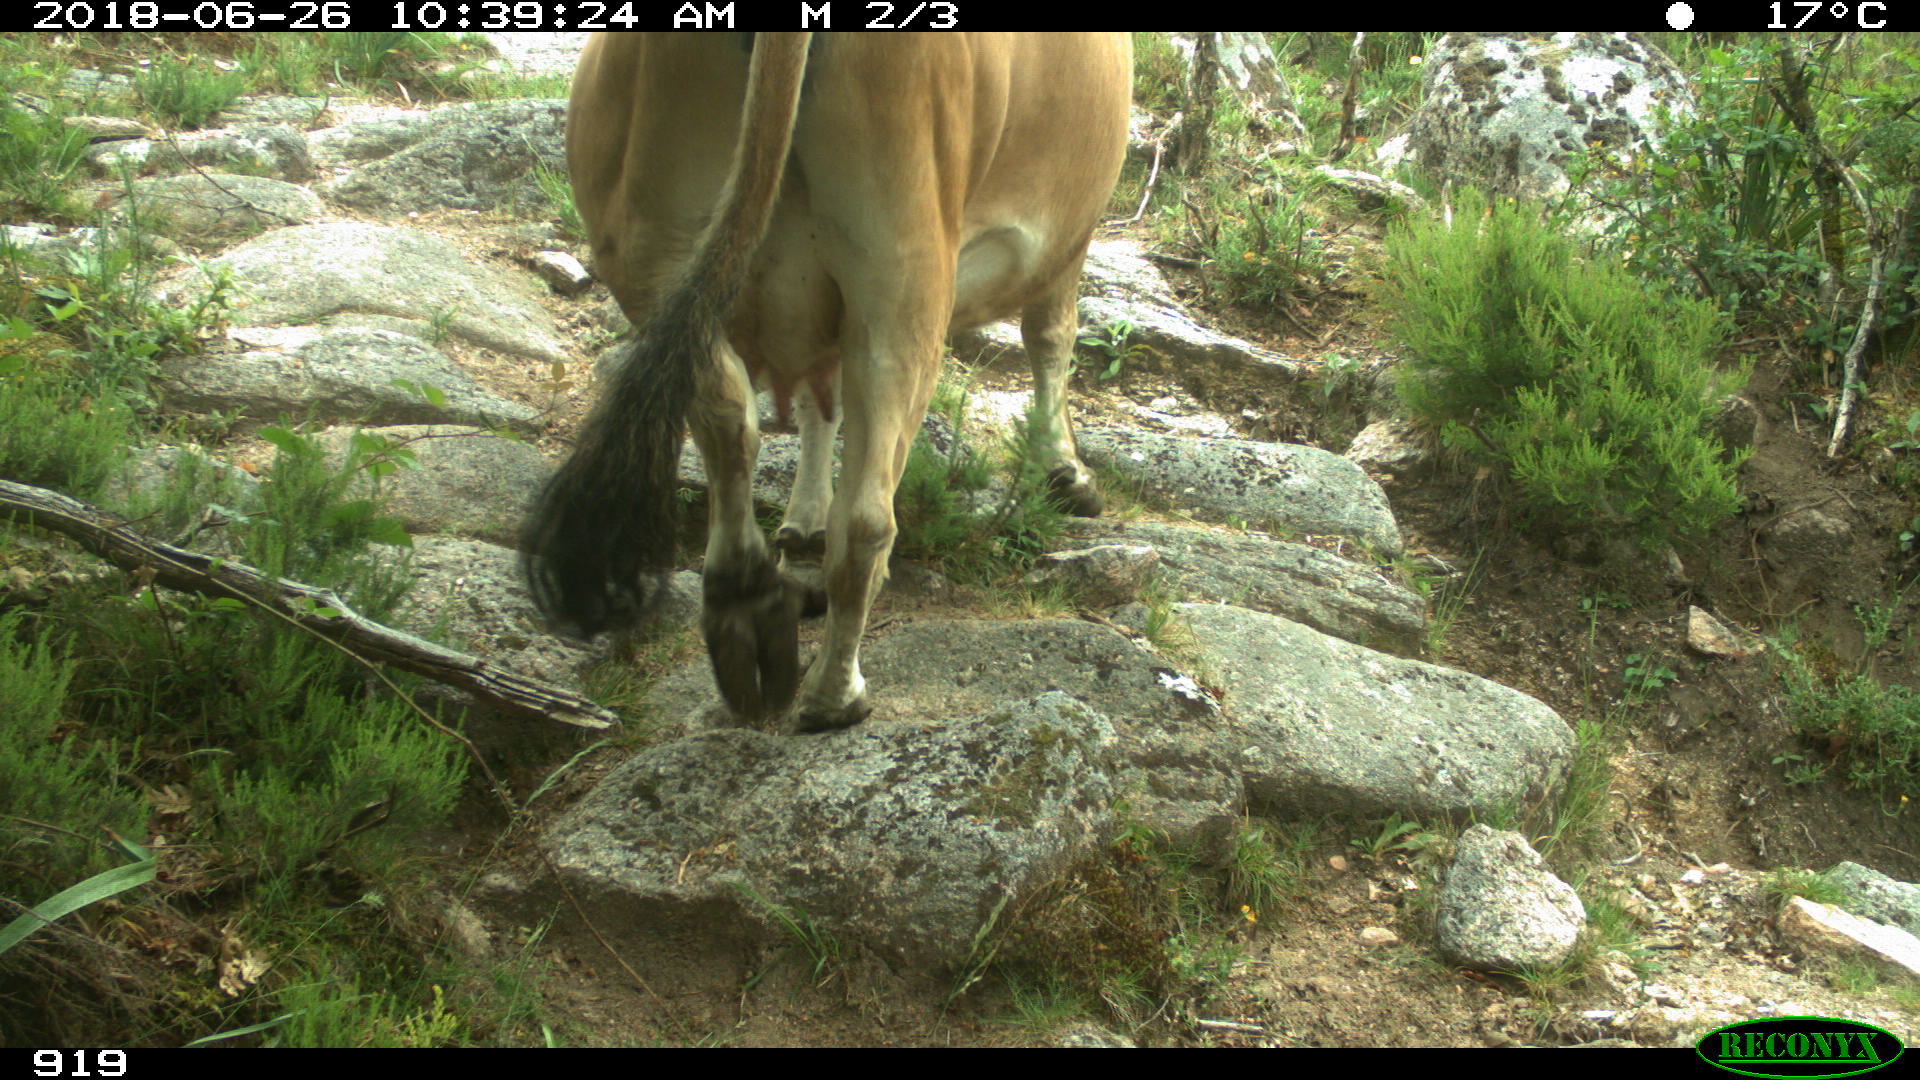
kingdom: Animalia
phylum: Chordata
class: Mammalia
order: Artiodactyla
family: Bovidae
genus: Bos
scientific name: Bos taurus
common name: Domesticated cattle
